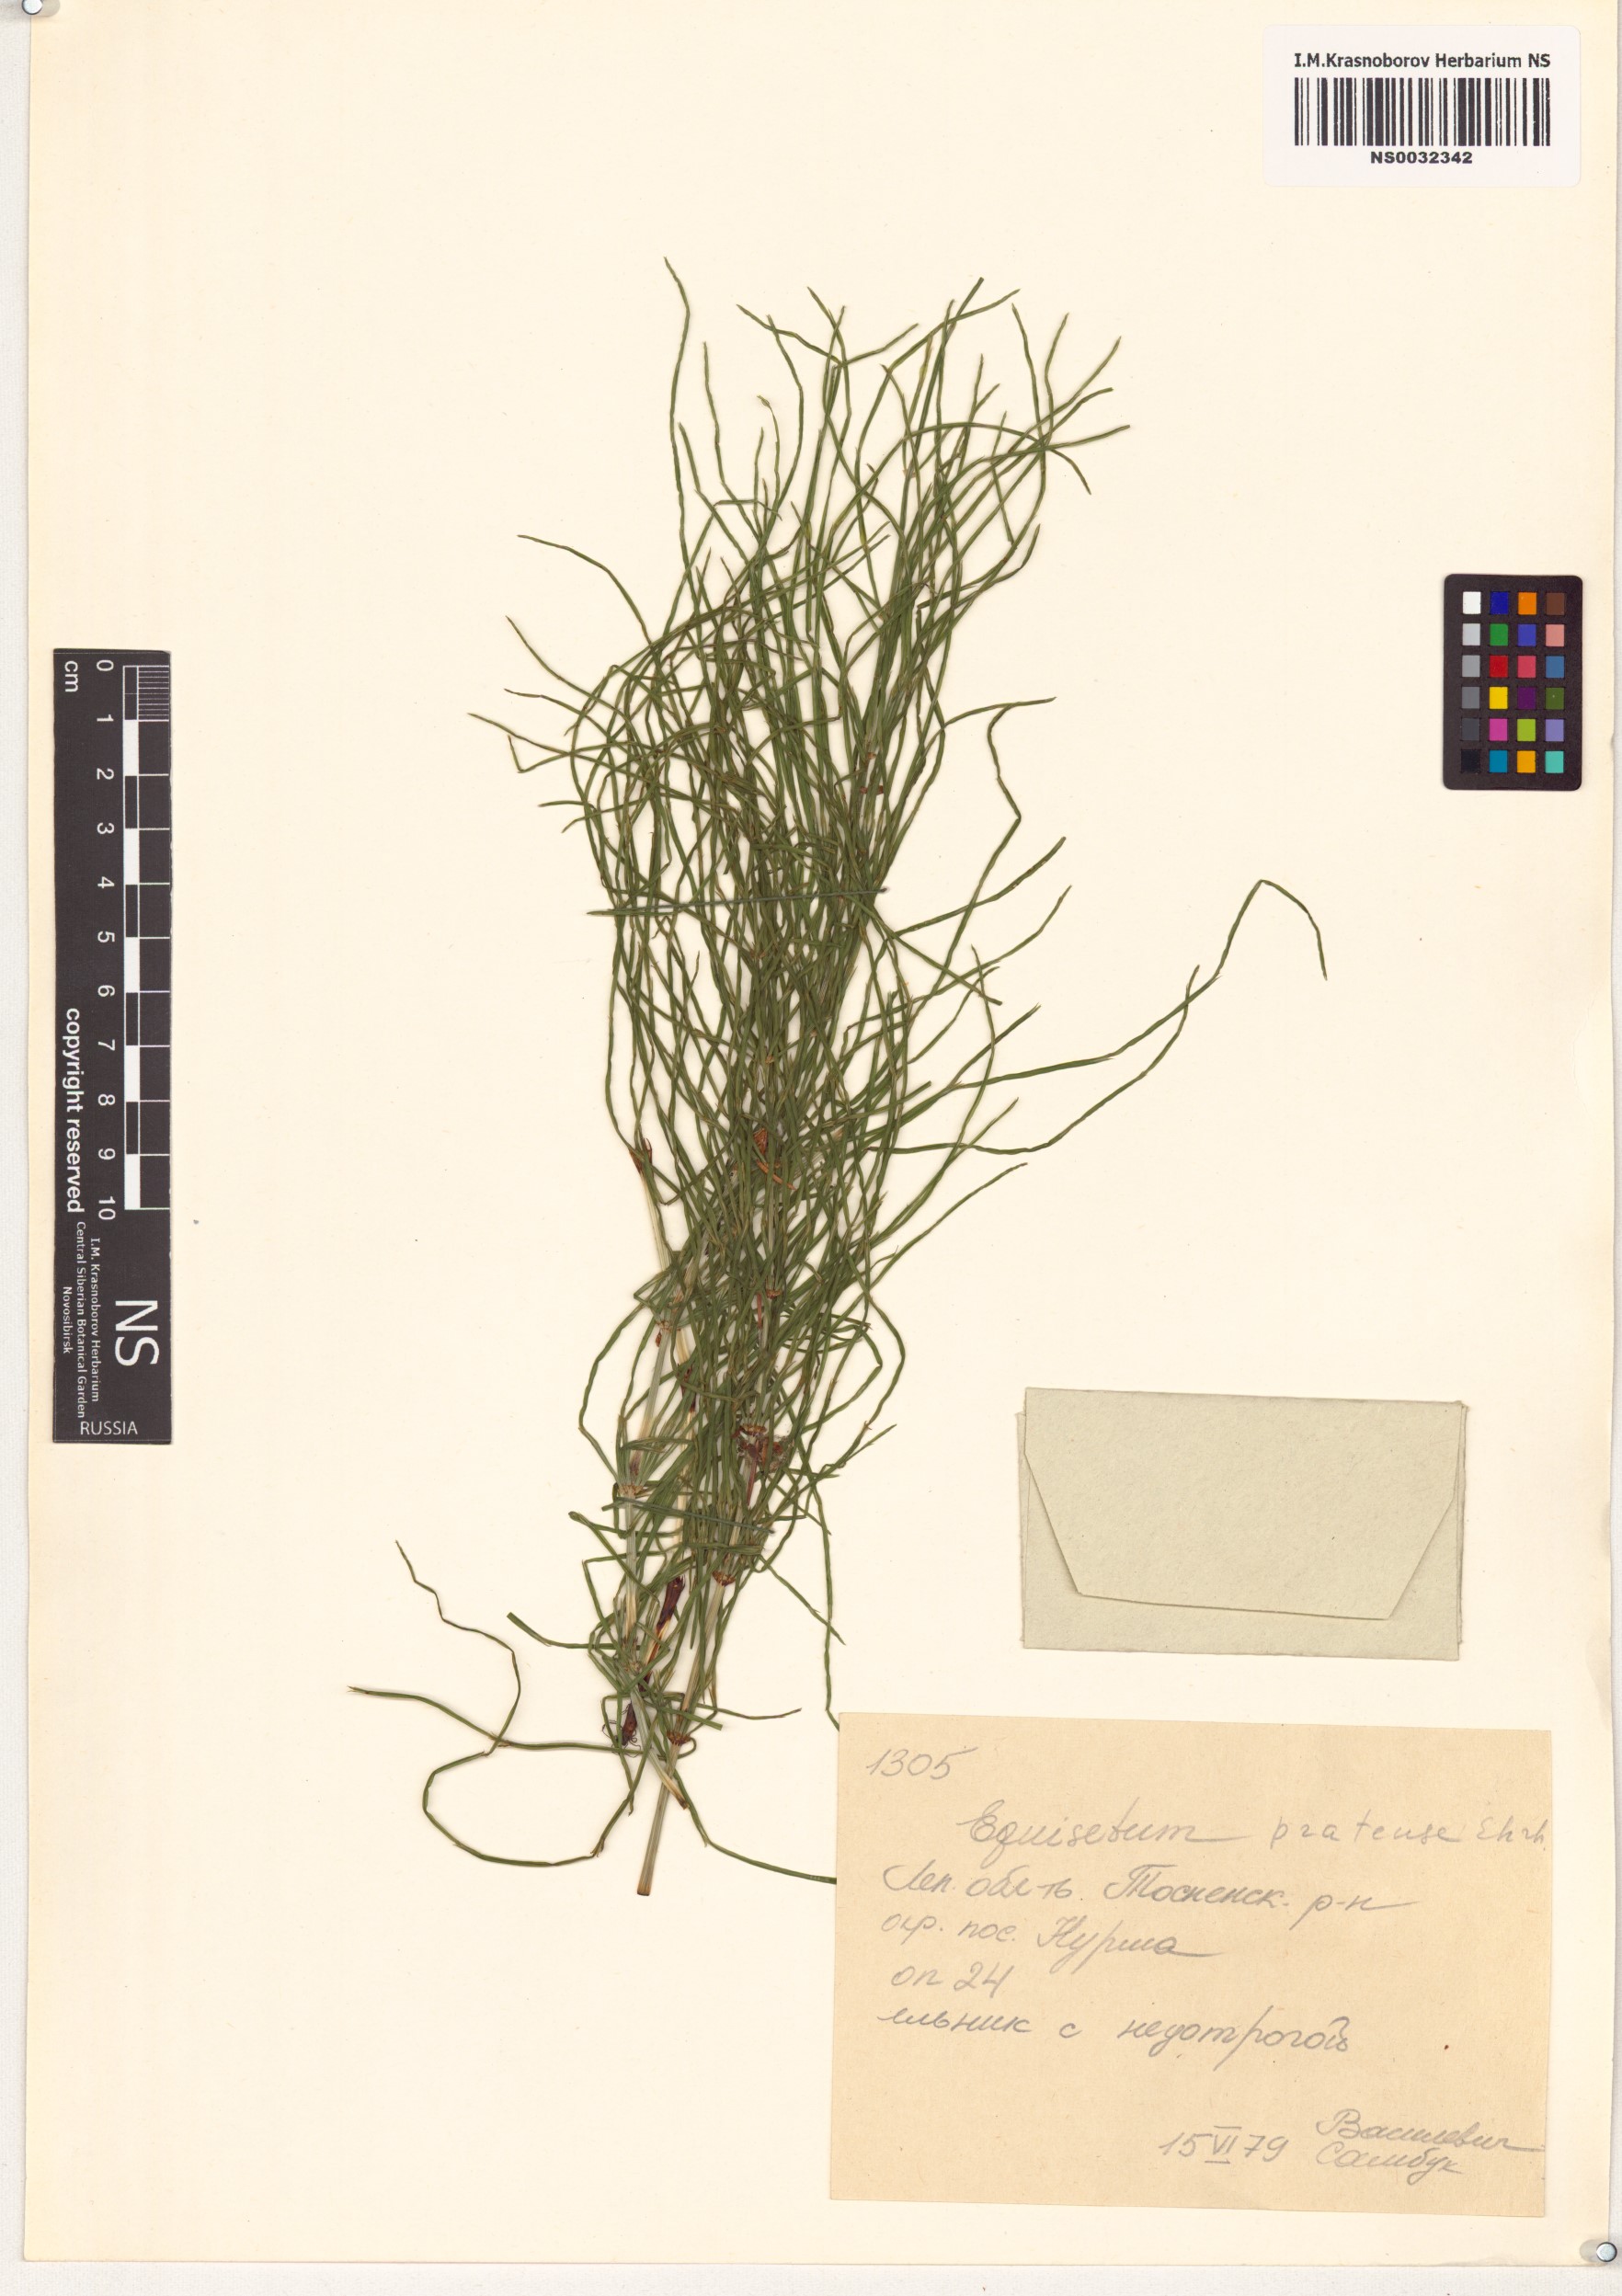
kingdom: Plantae
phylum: Tracheophyta
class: Polypodiopsida
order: Equisetales
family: Equisetaceae
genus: Equisetum
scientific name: Equisetum pratense
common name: Meadow horsetail
